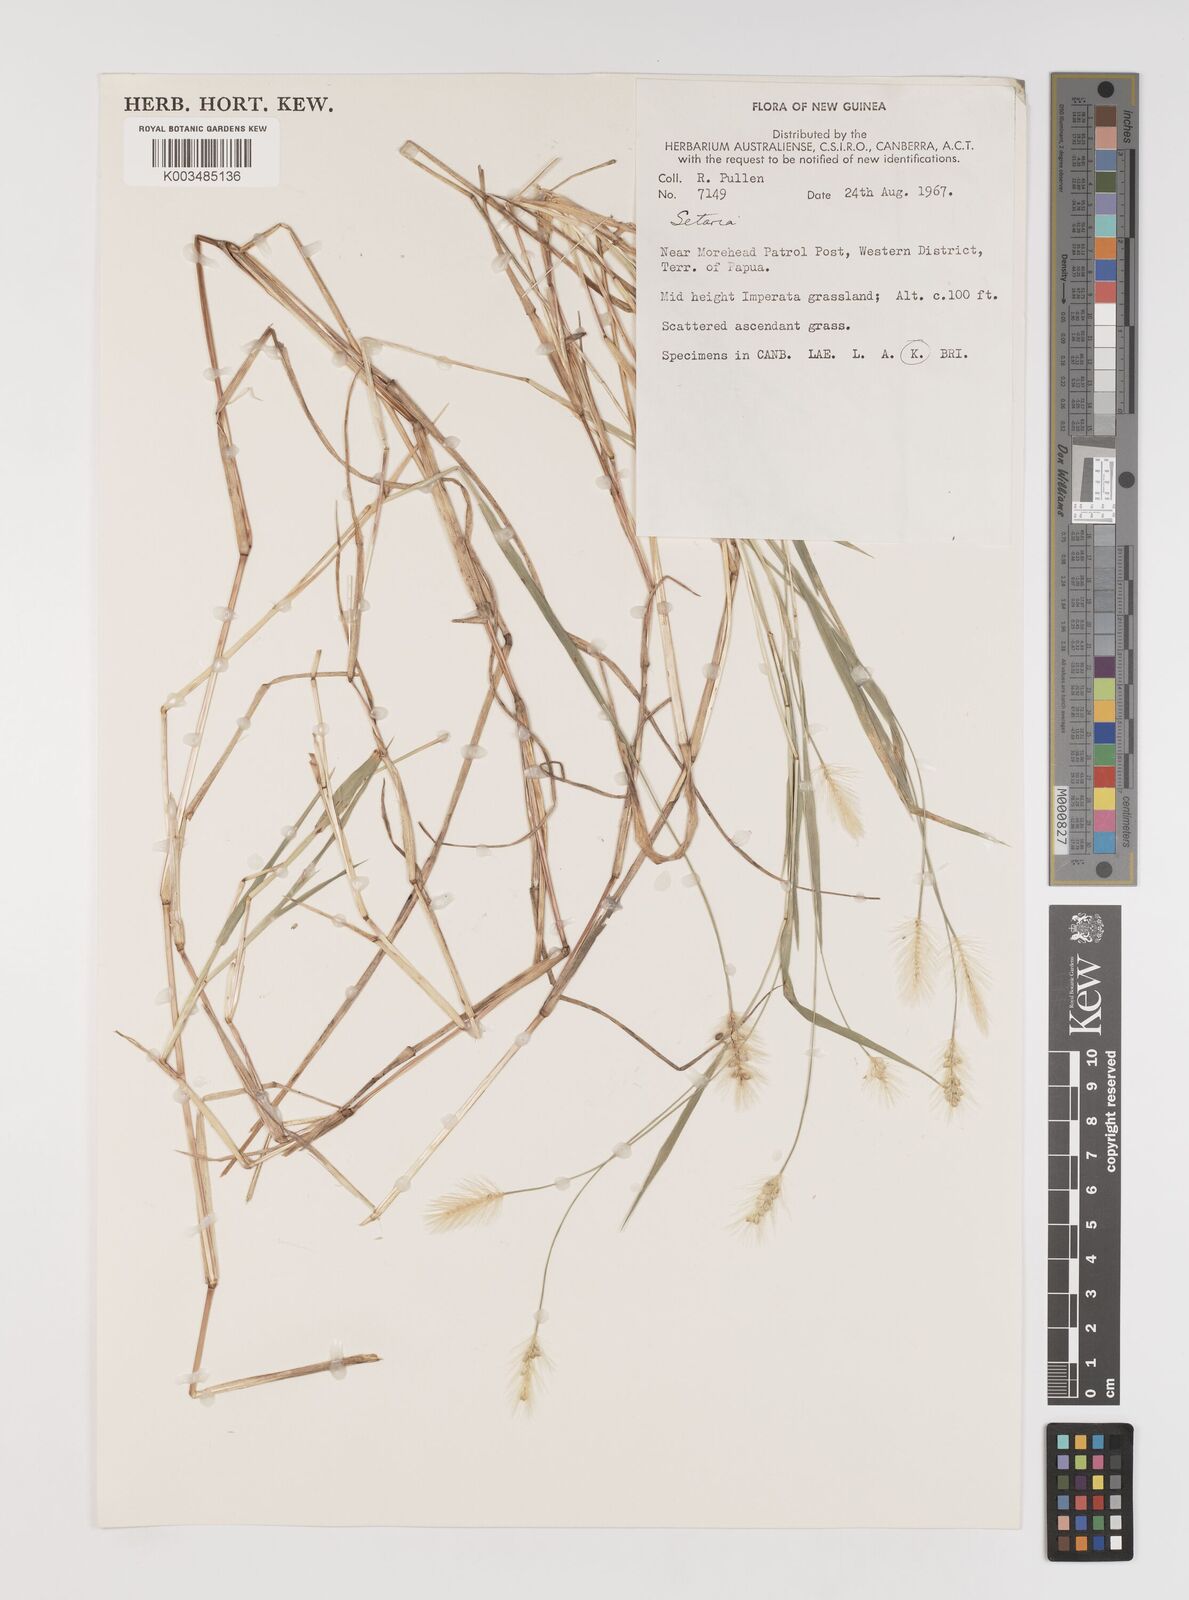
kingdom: Plantae
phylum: Tracheophyta
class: Liliopsida
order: Poales
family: Poaceae
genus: Setaria
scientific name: Setaria
